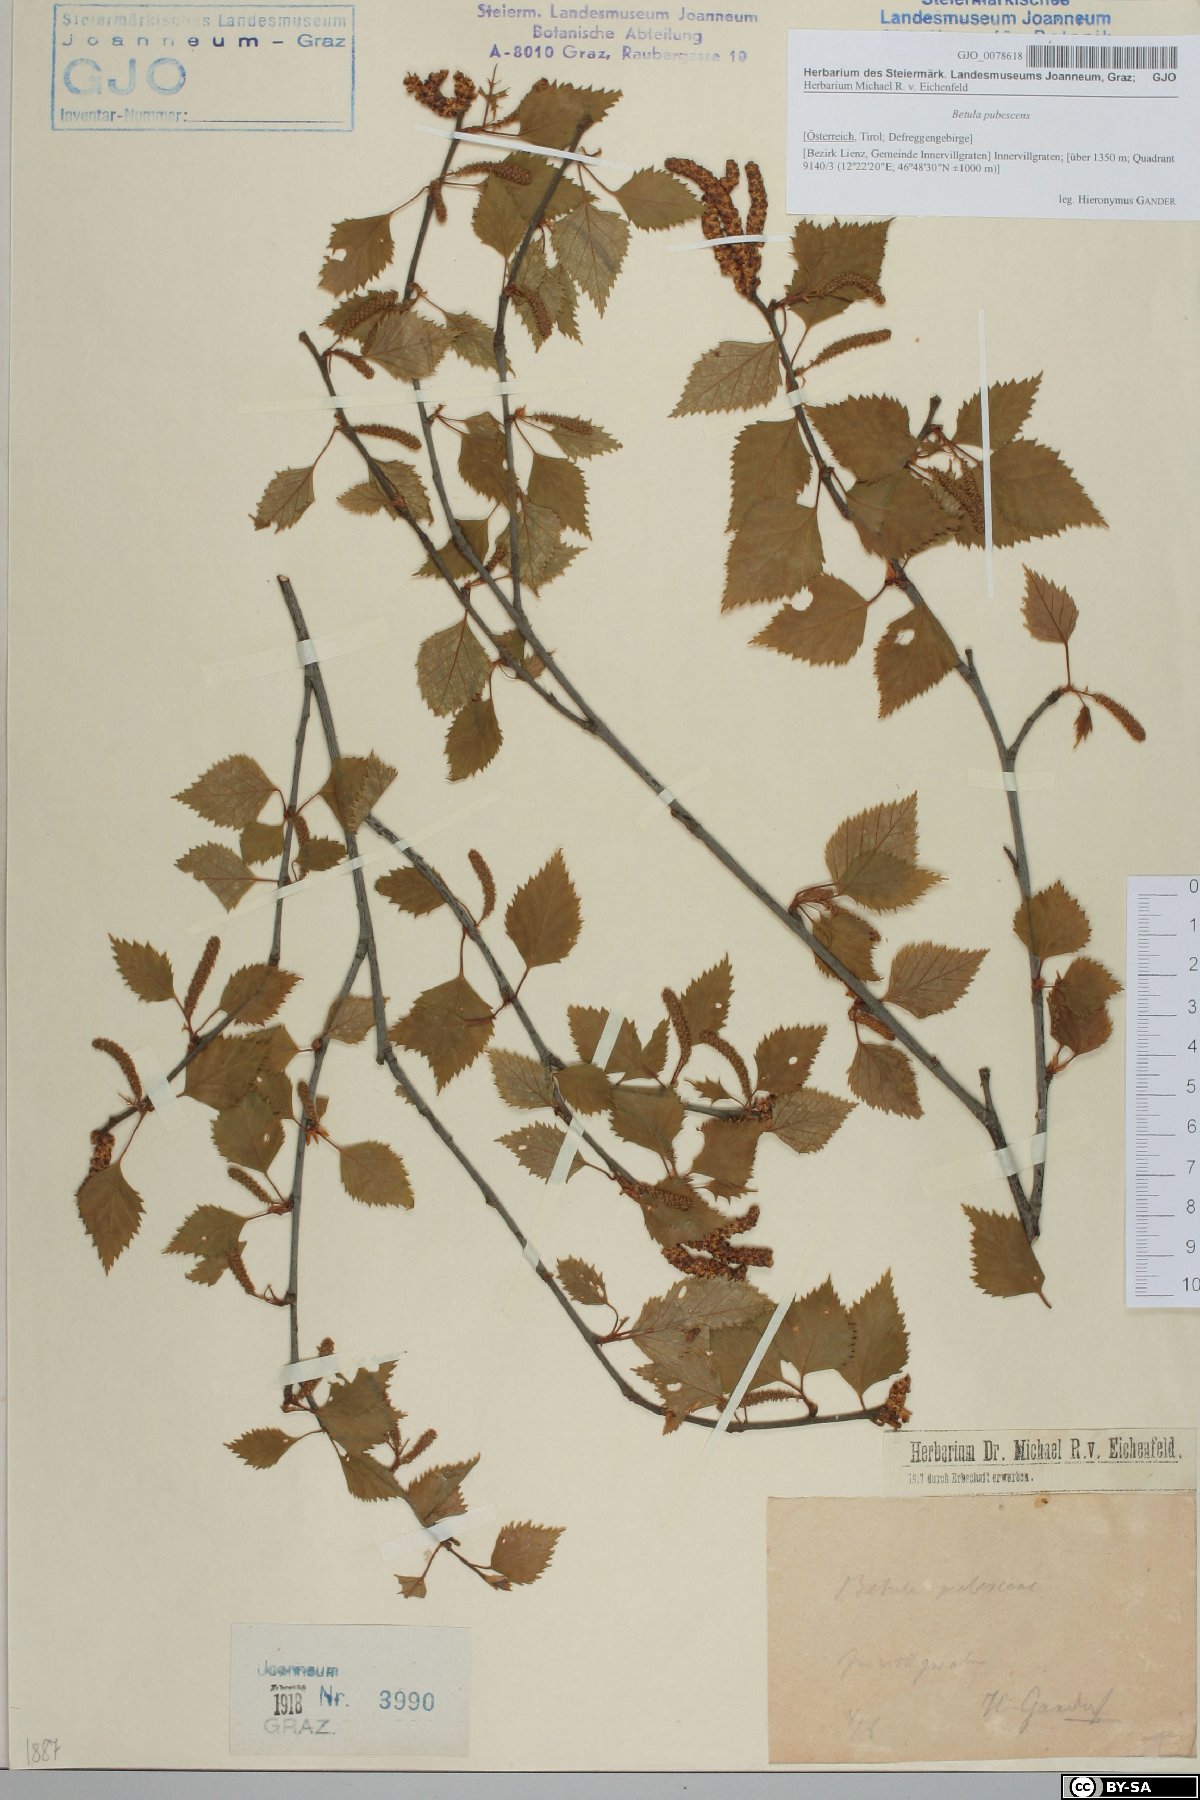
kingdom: Plantae
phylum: Tracheophyta
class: Magnoliopsida
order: Fagales
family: Betulaceae
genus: Betula
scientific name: Betula pubescens
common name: Downy birch
